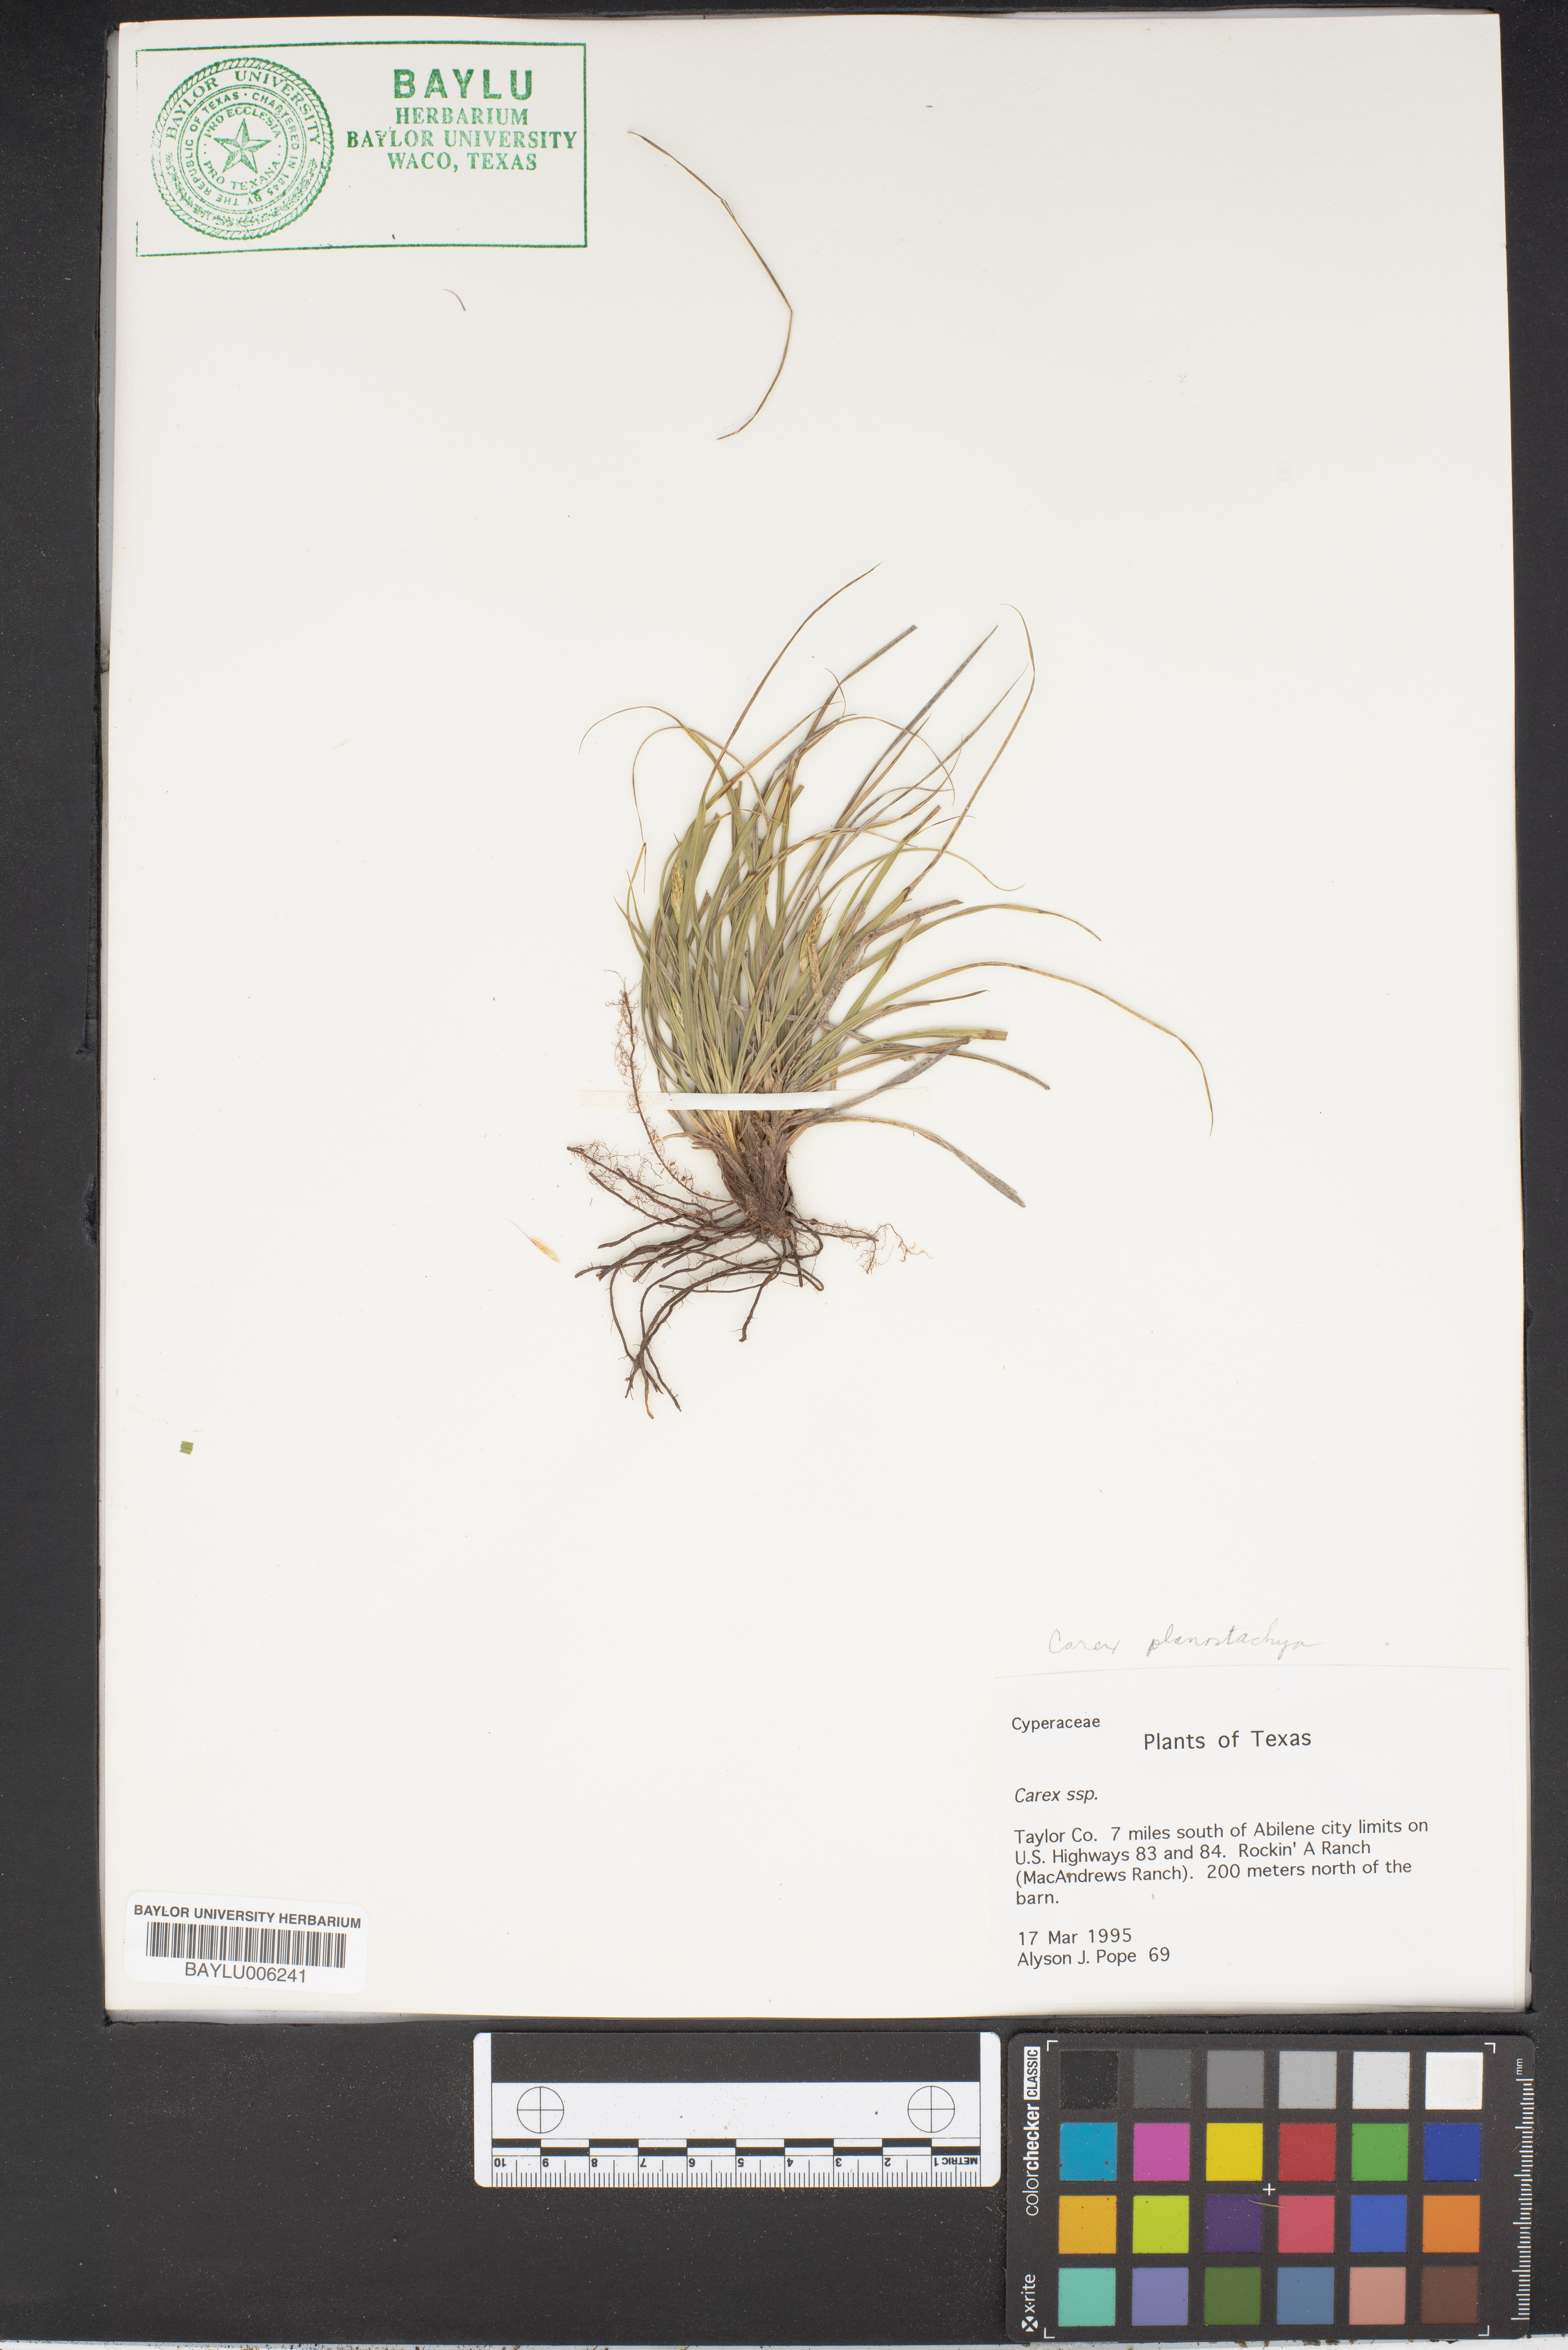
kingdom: Plantae
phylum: Tracheophyta
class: Liliopsida
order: Poales
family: Cyperaceae
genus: Carex
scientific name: Carex
